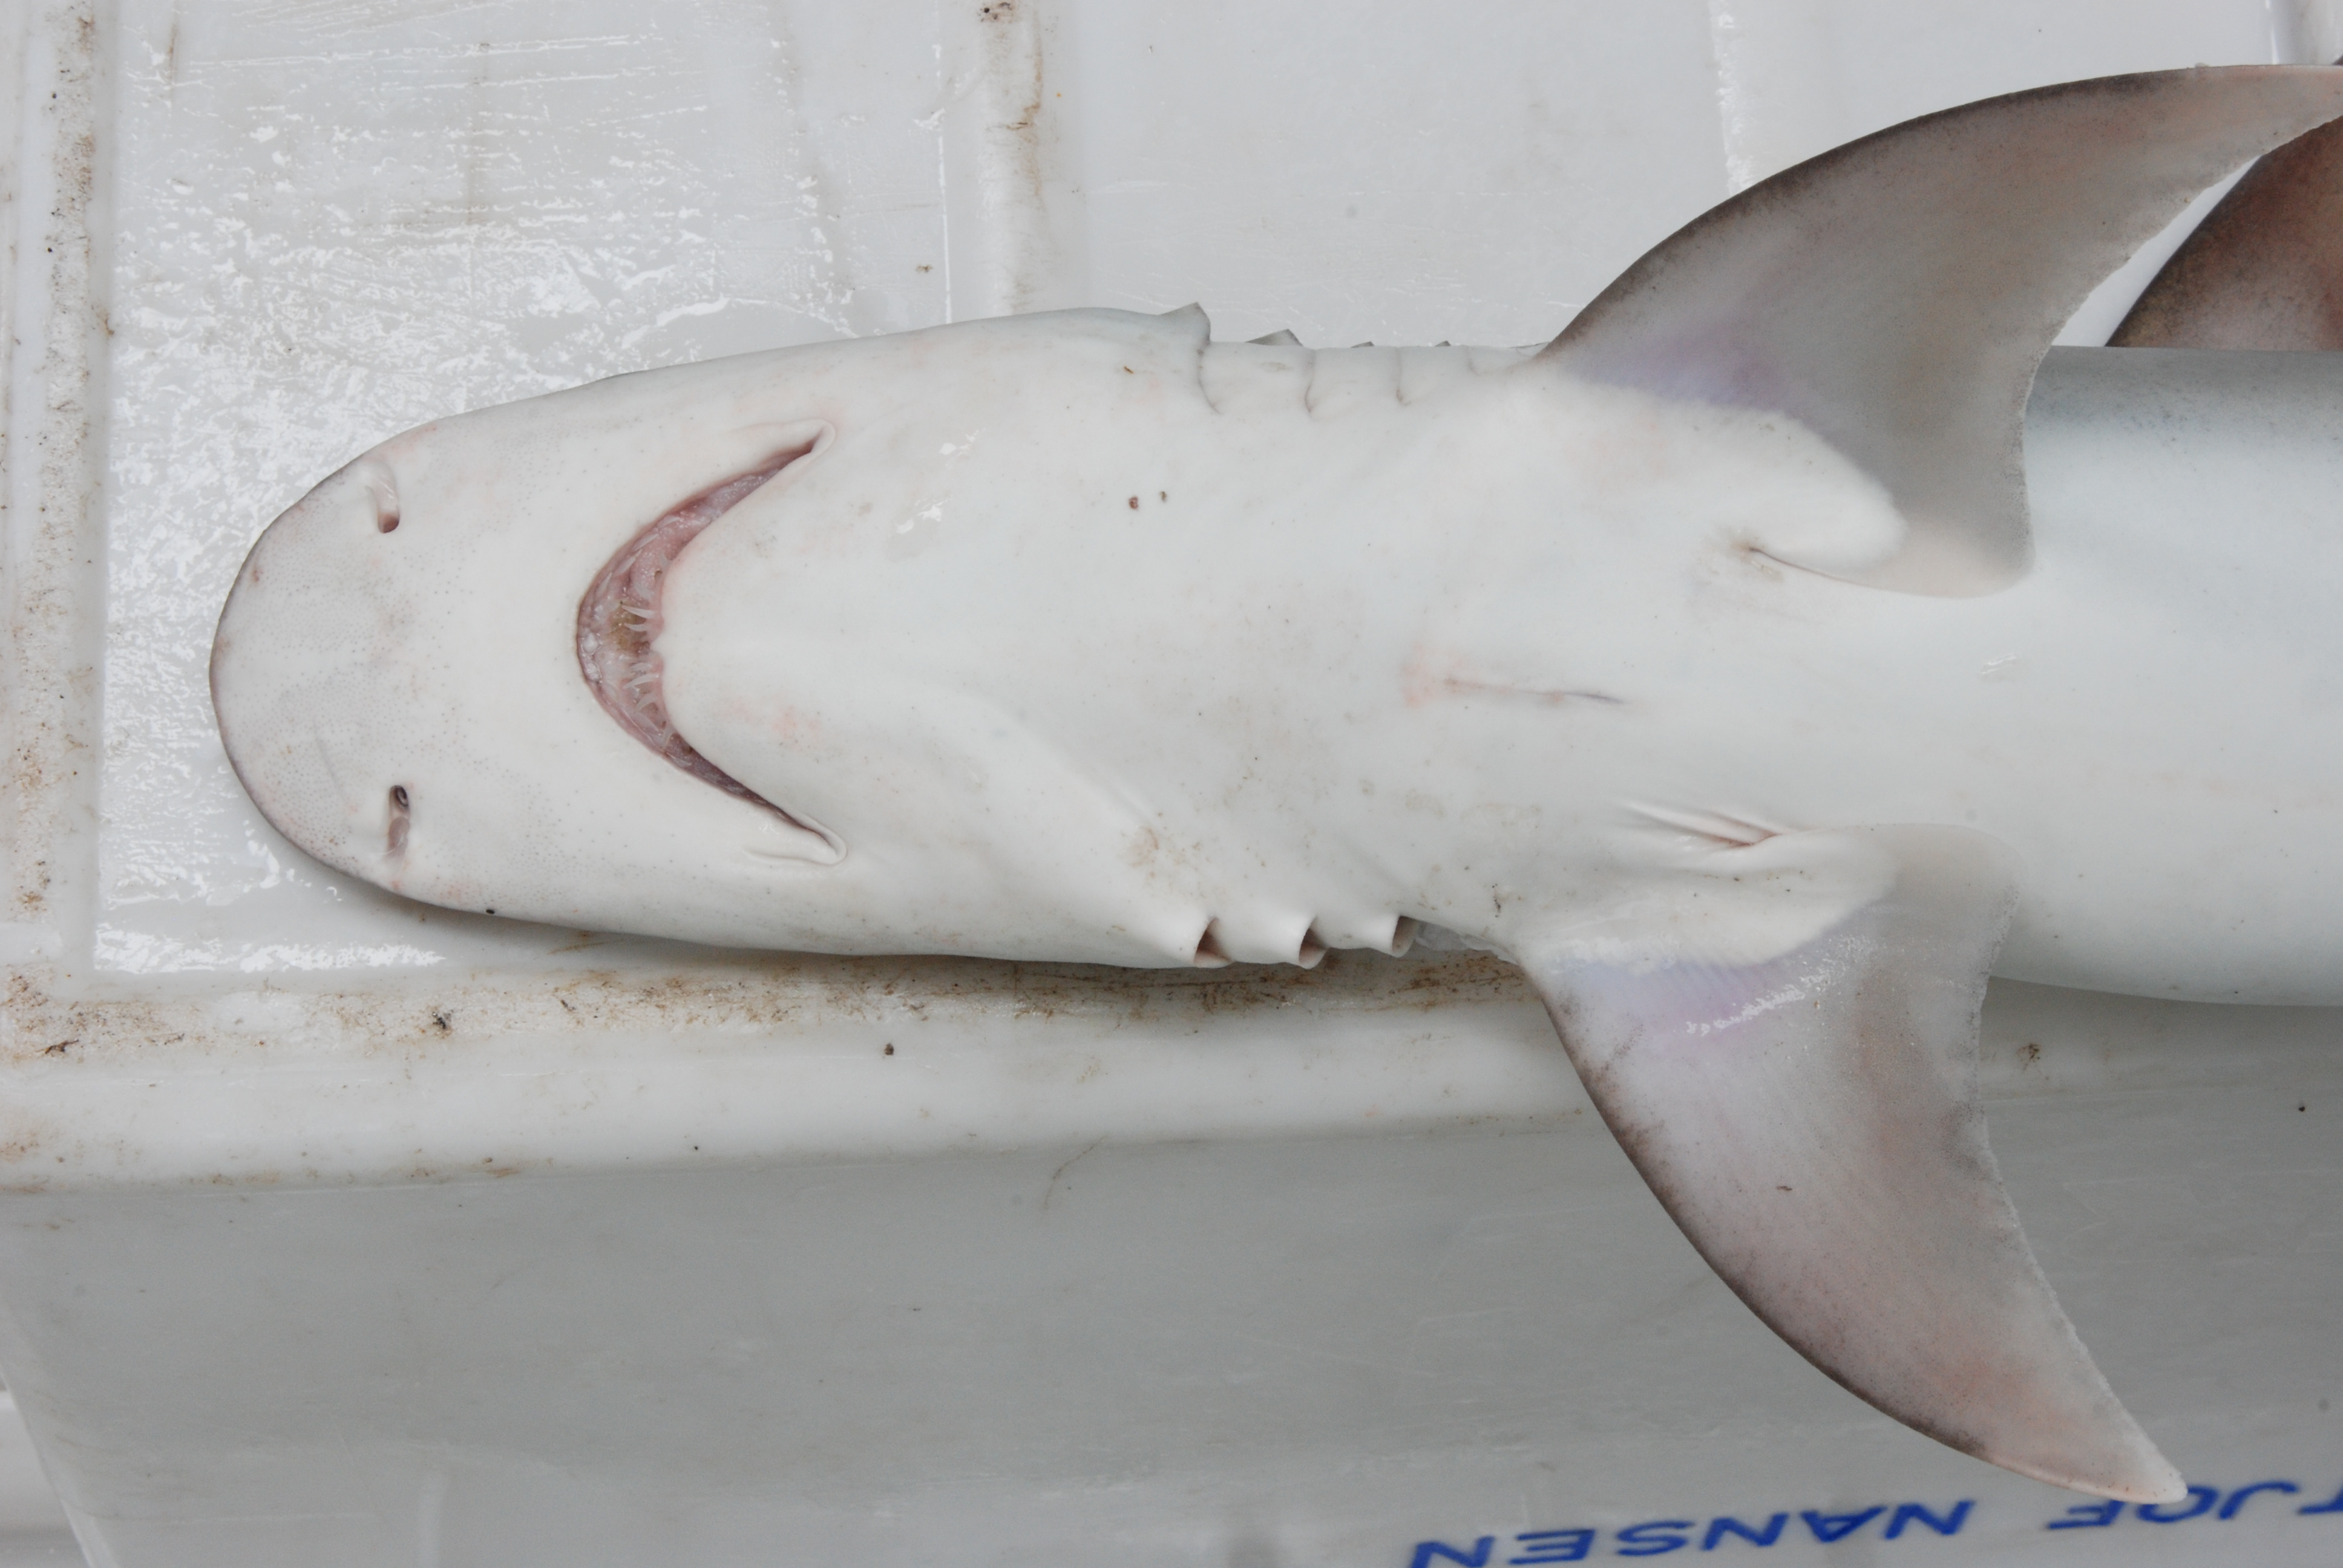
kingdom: Animalia
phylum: Chordata
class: Elasmobranchii
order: Carcharhiniformes
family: Hemigaleidae
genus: Hemipristis
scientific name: Hemipristis elongata
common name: Snaggletooth shark
